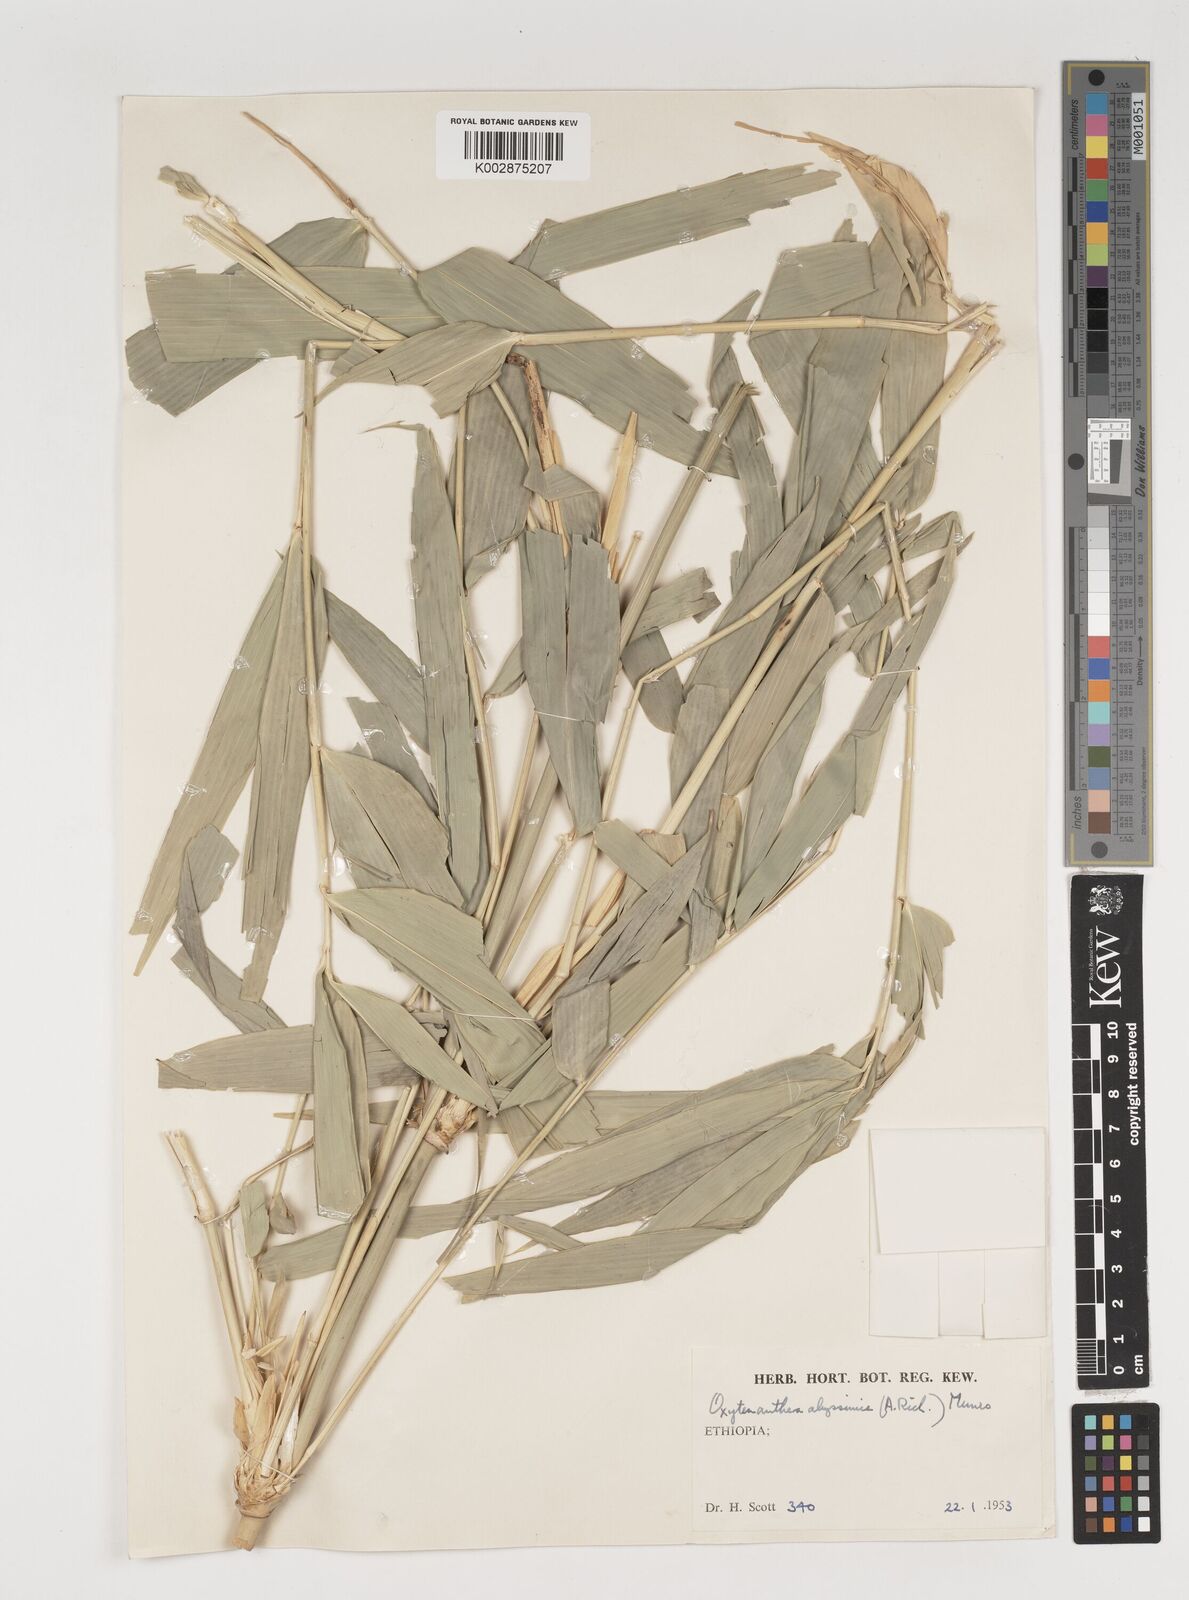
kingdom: Plantae
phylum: Tracheophyta
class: Liliopsida
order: Poales
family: Poaceae
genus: Oxytenanthera
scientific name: Oxytenanthera abyssinica
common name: Wine bamboo
